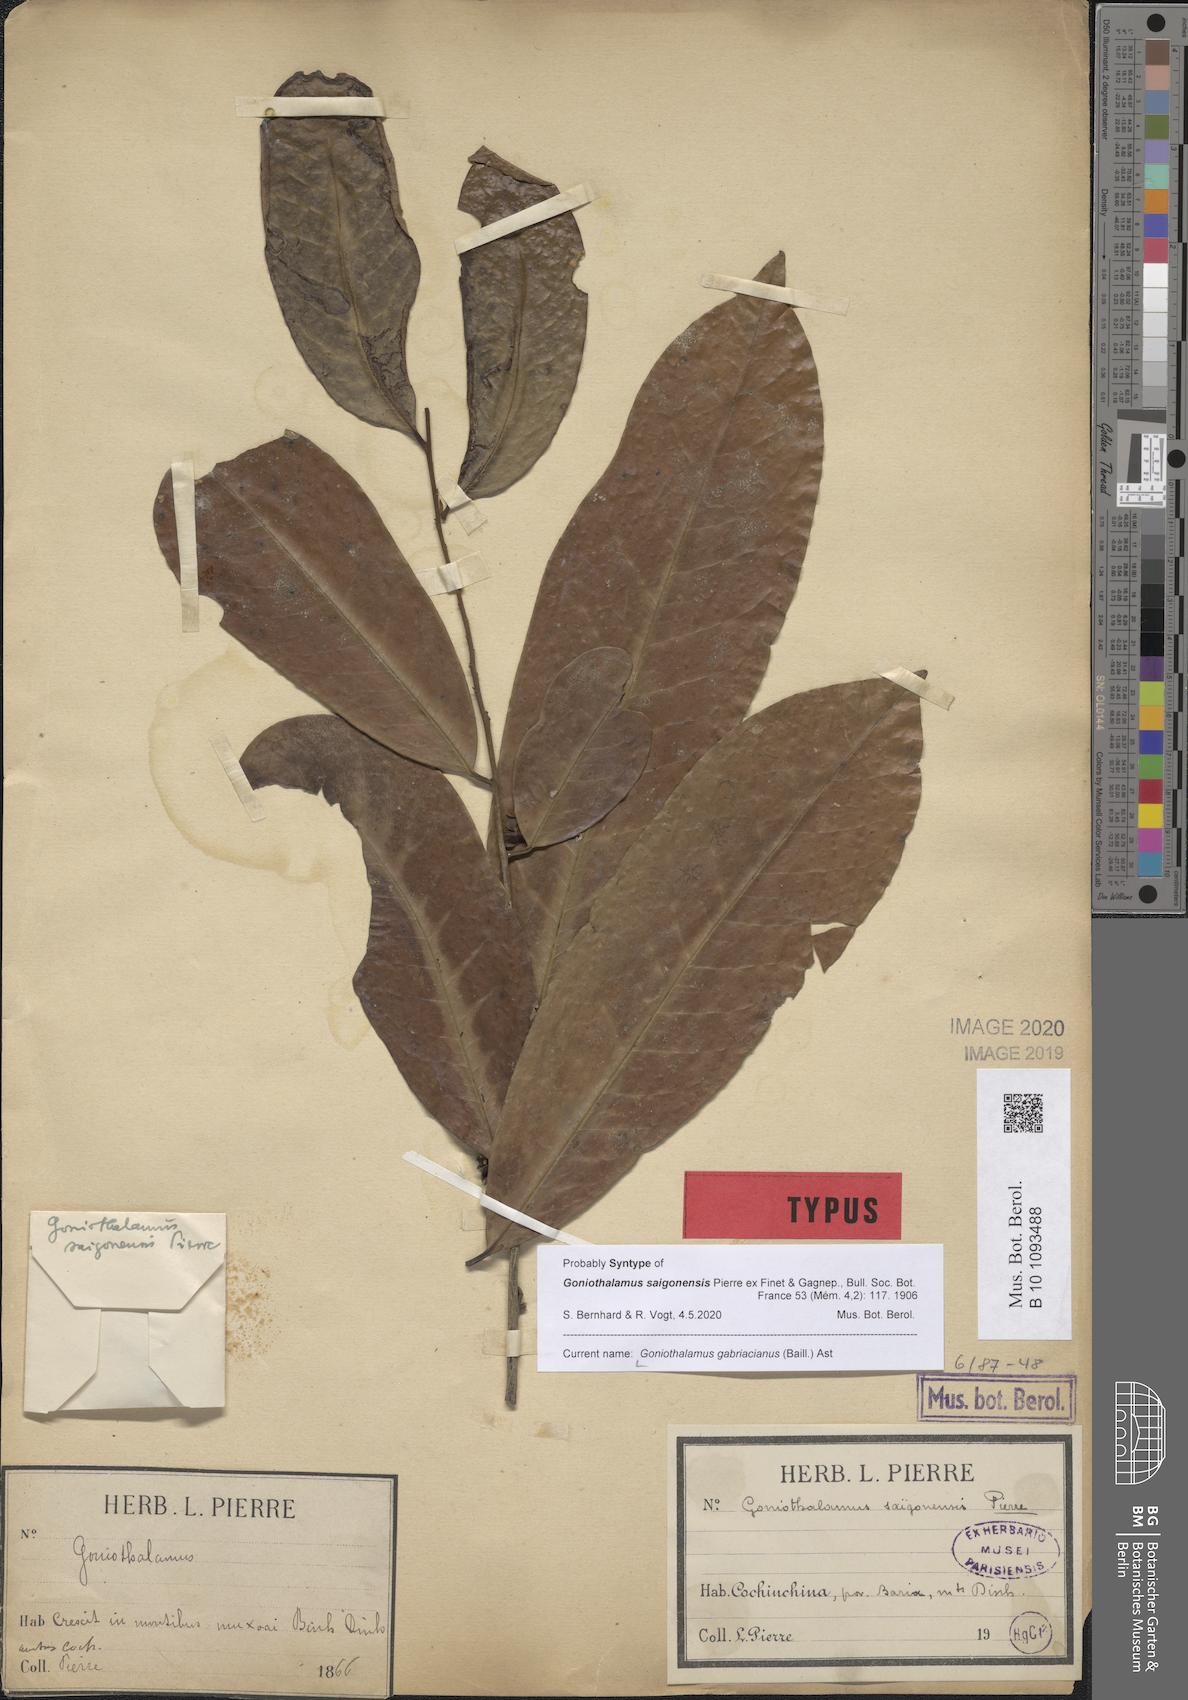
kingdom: Plantae
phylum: Tracheophyta
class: Magnoliopsida
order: Magnoliales
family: Annonaceae
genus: Goniothalamus
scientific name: Goniothalamus gabriacianus
